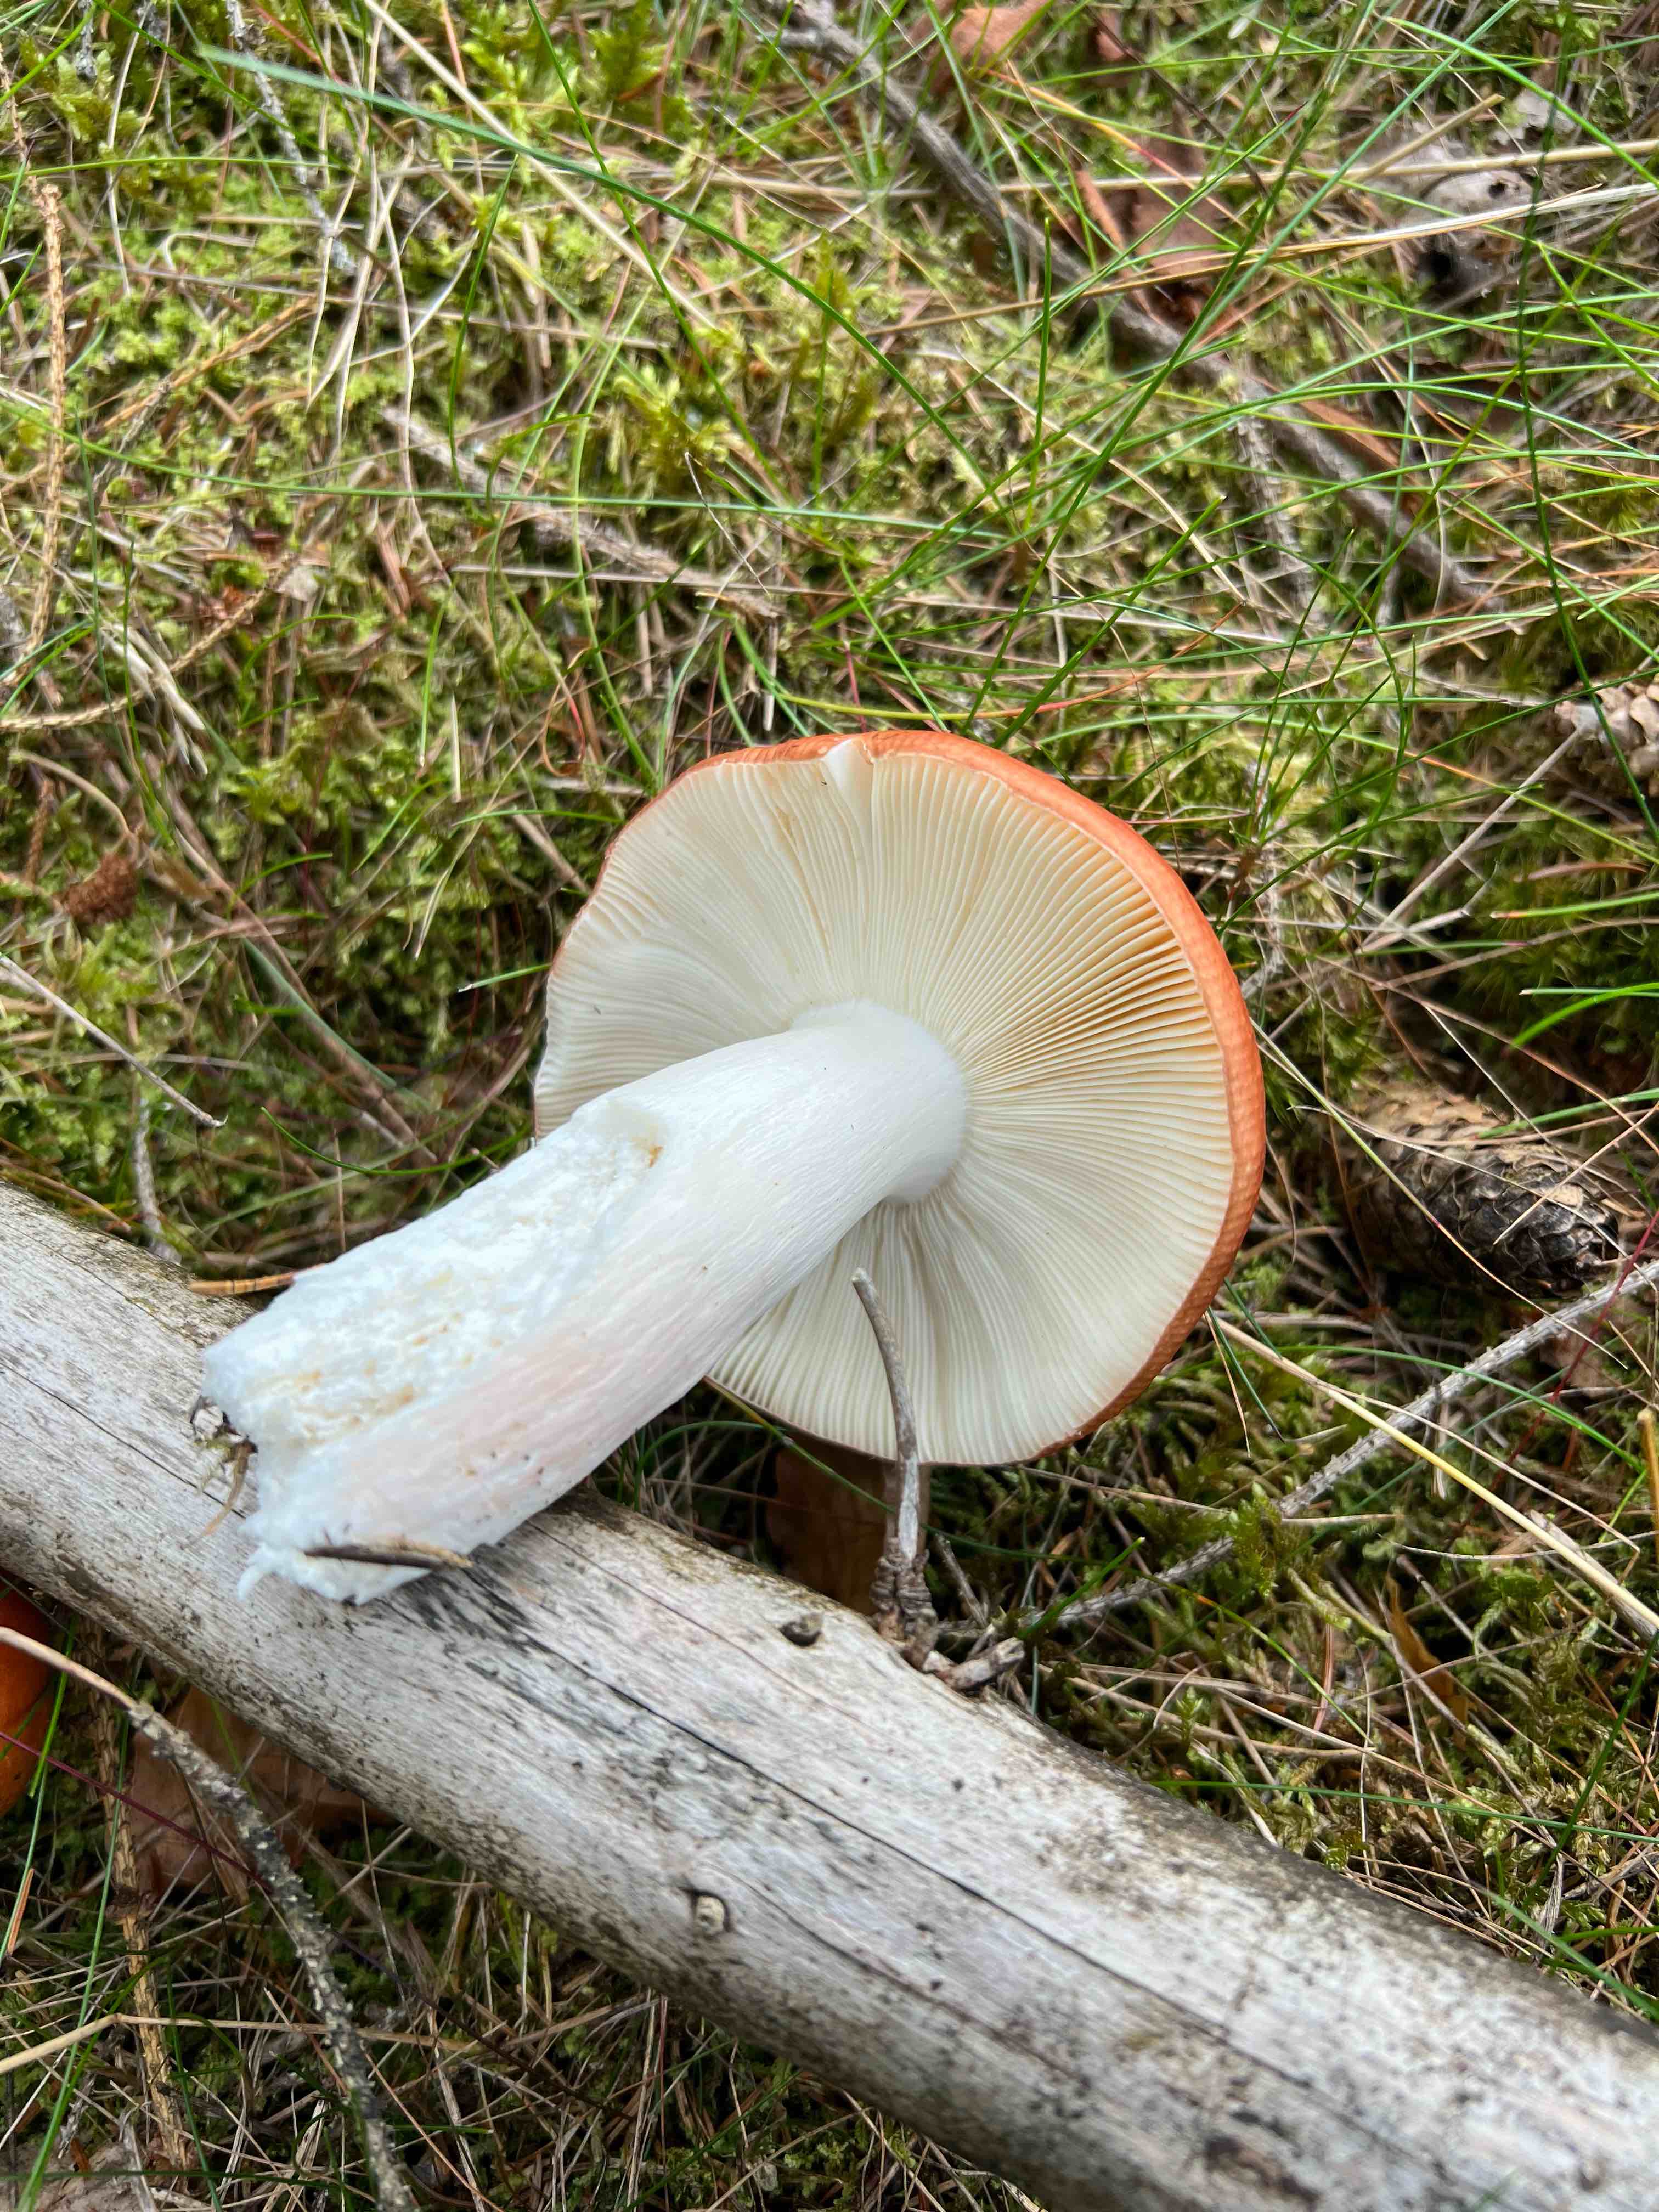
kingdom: Fungi
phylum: Basidiomycota
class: Agaricomycetes
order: Russulales
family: Russulaceae
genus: Russula
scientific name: Russula paludosa
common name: prægtig skørhat
